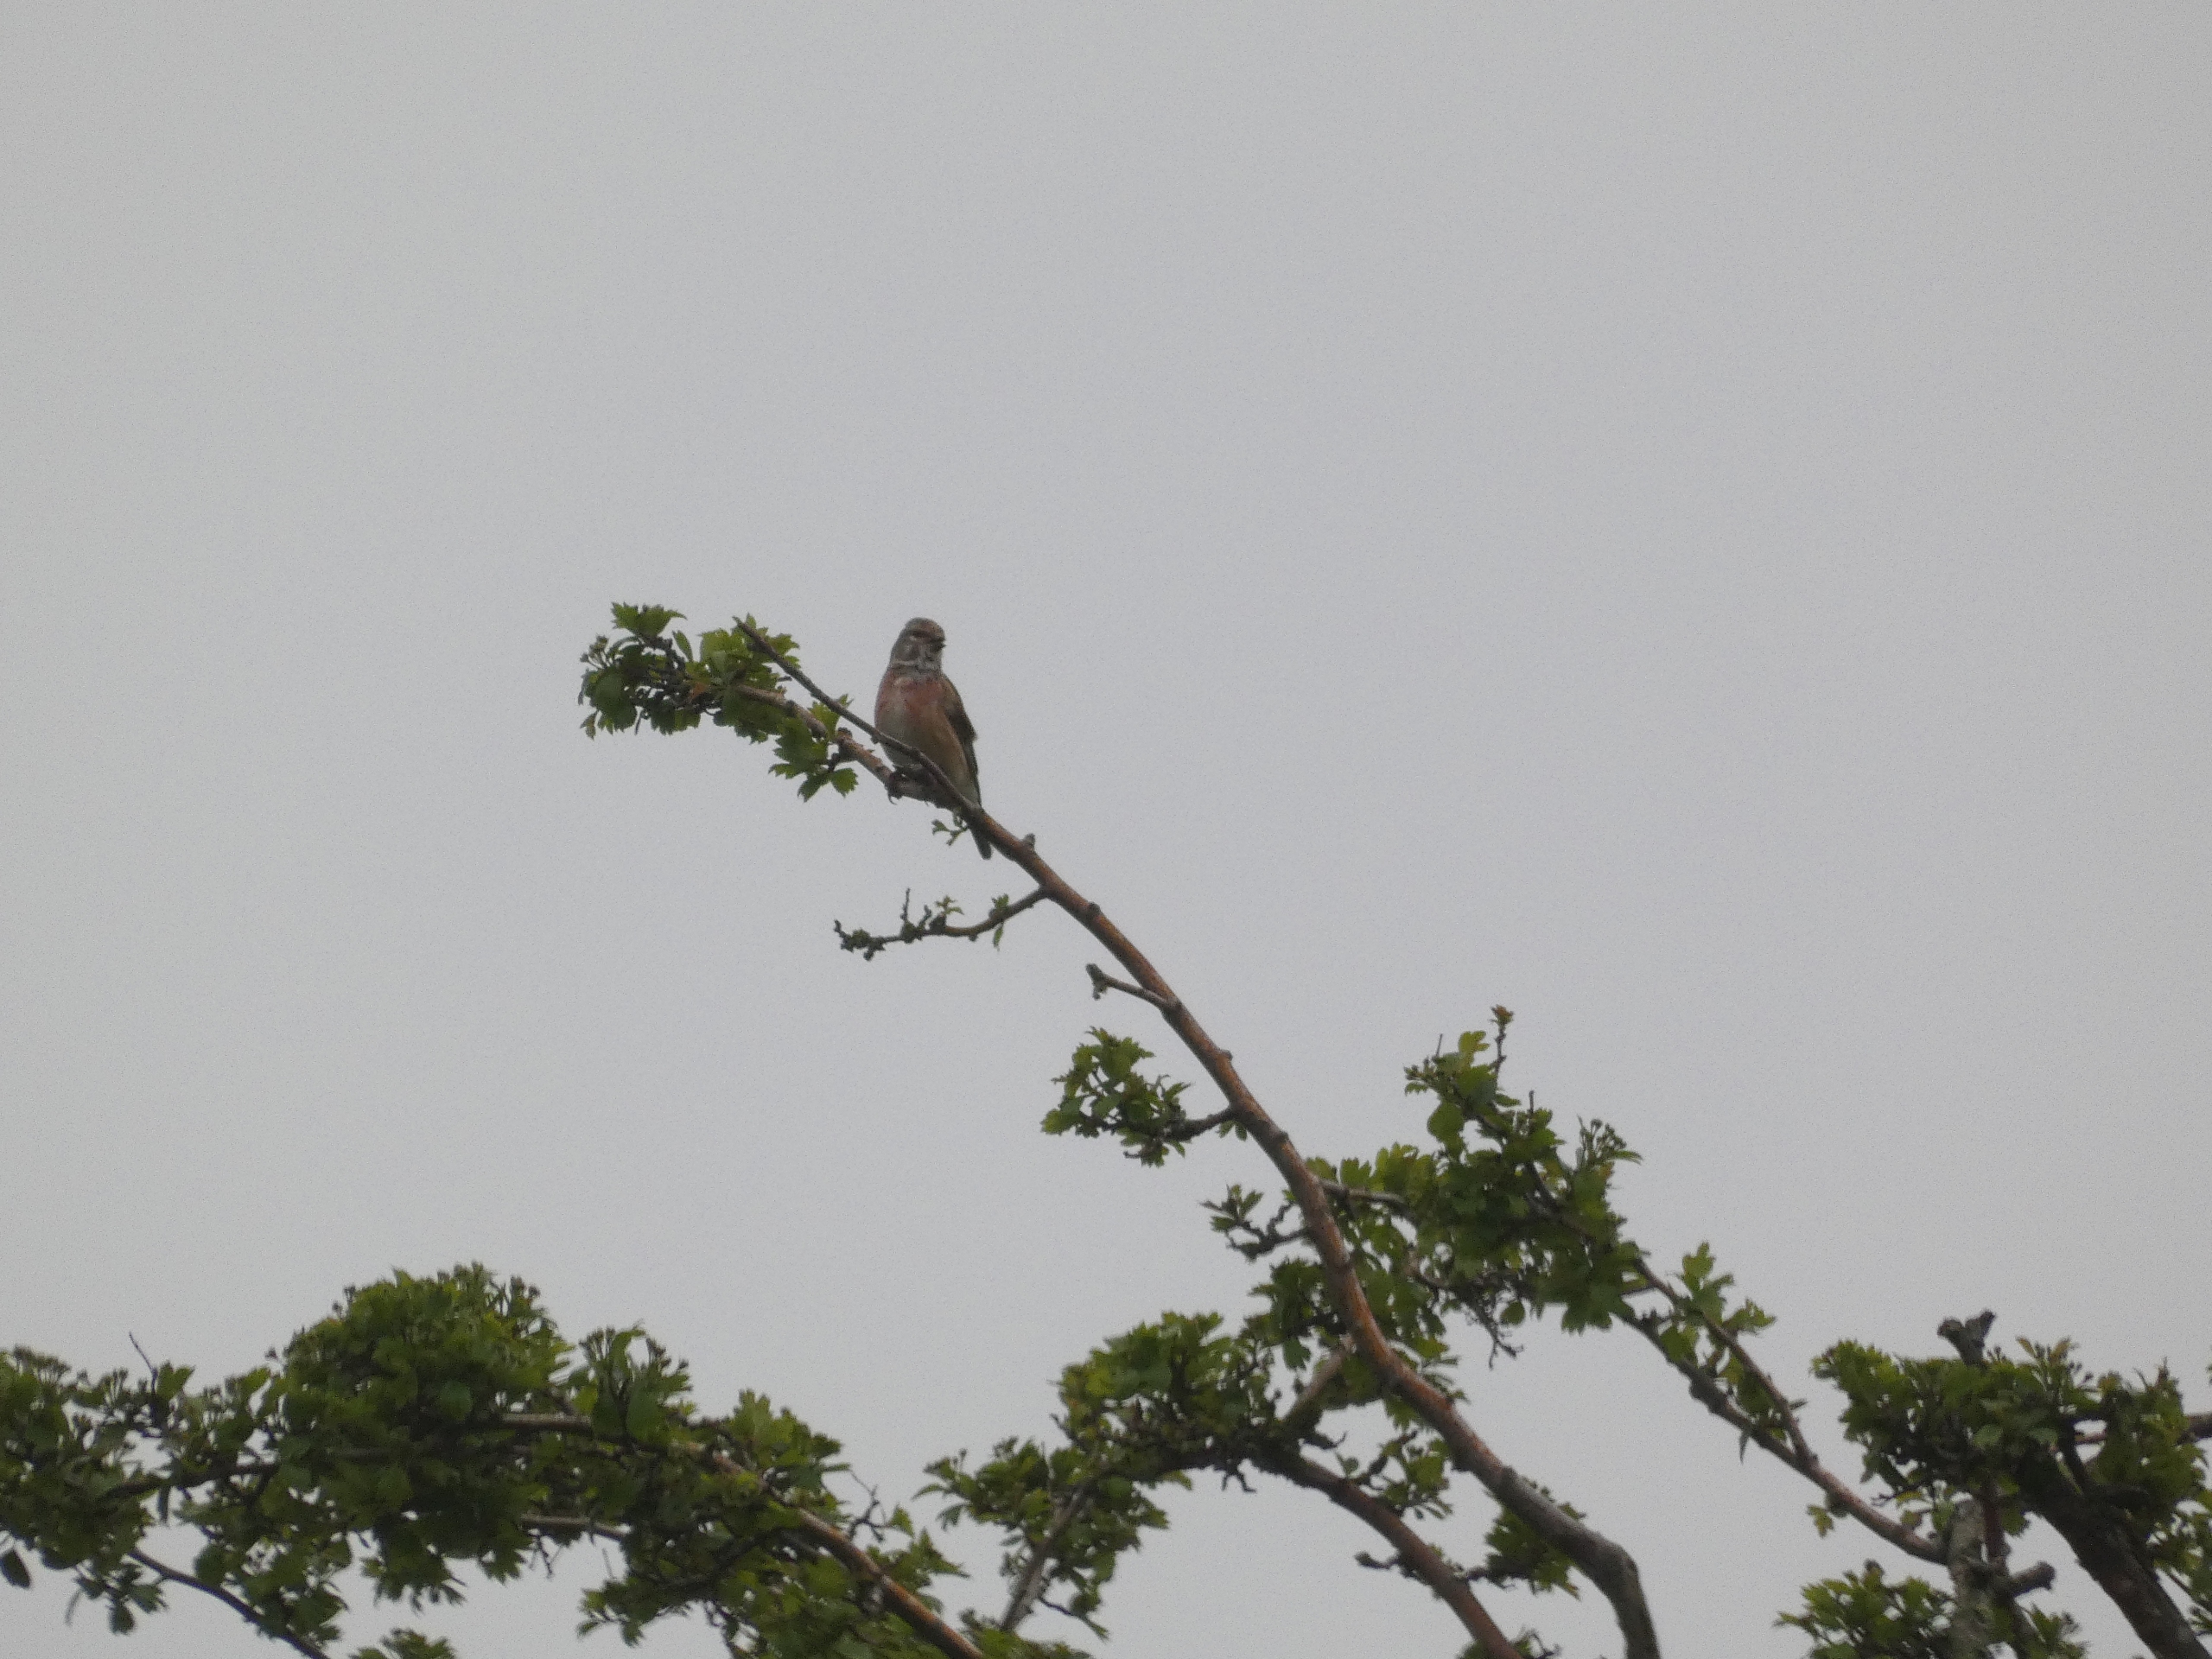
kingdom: Animalia
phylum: Chordata
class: Aves
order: Passeriformes
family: Fringillidae
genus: Linaria
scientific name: Linaria cannabina
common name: Tornirisk
